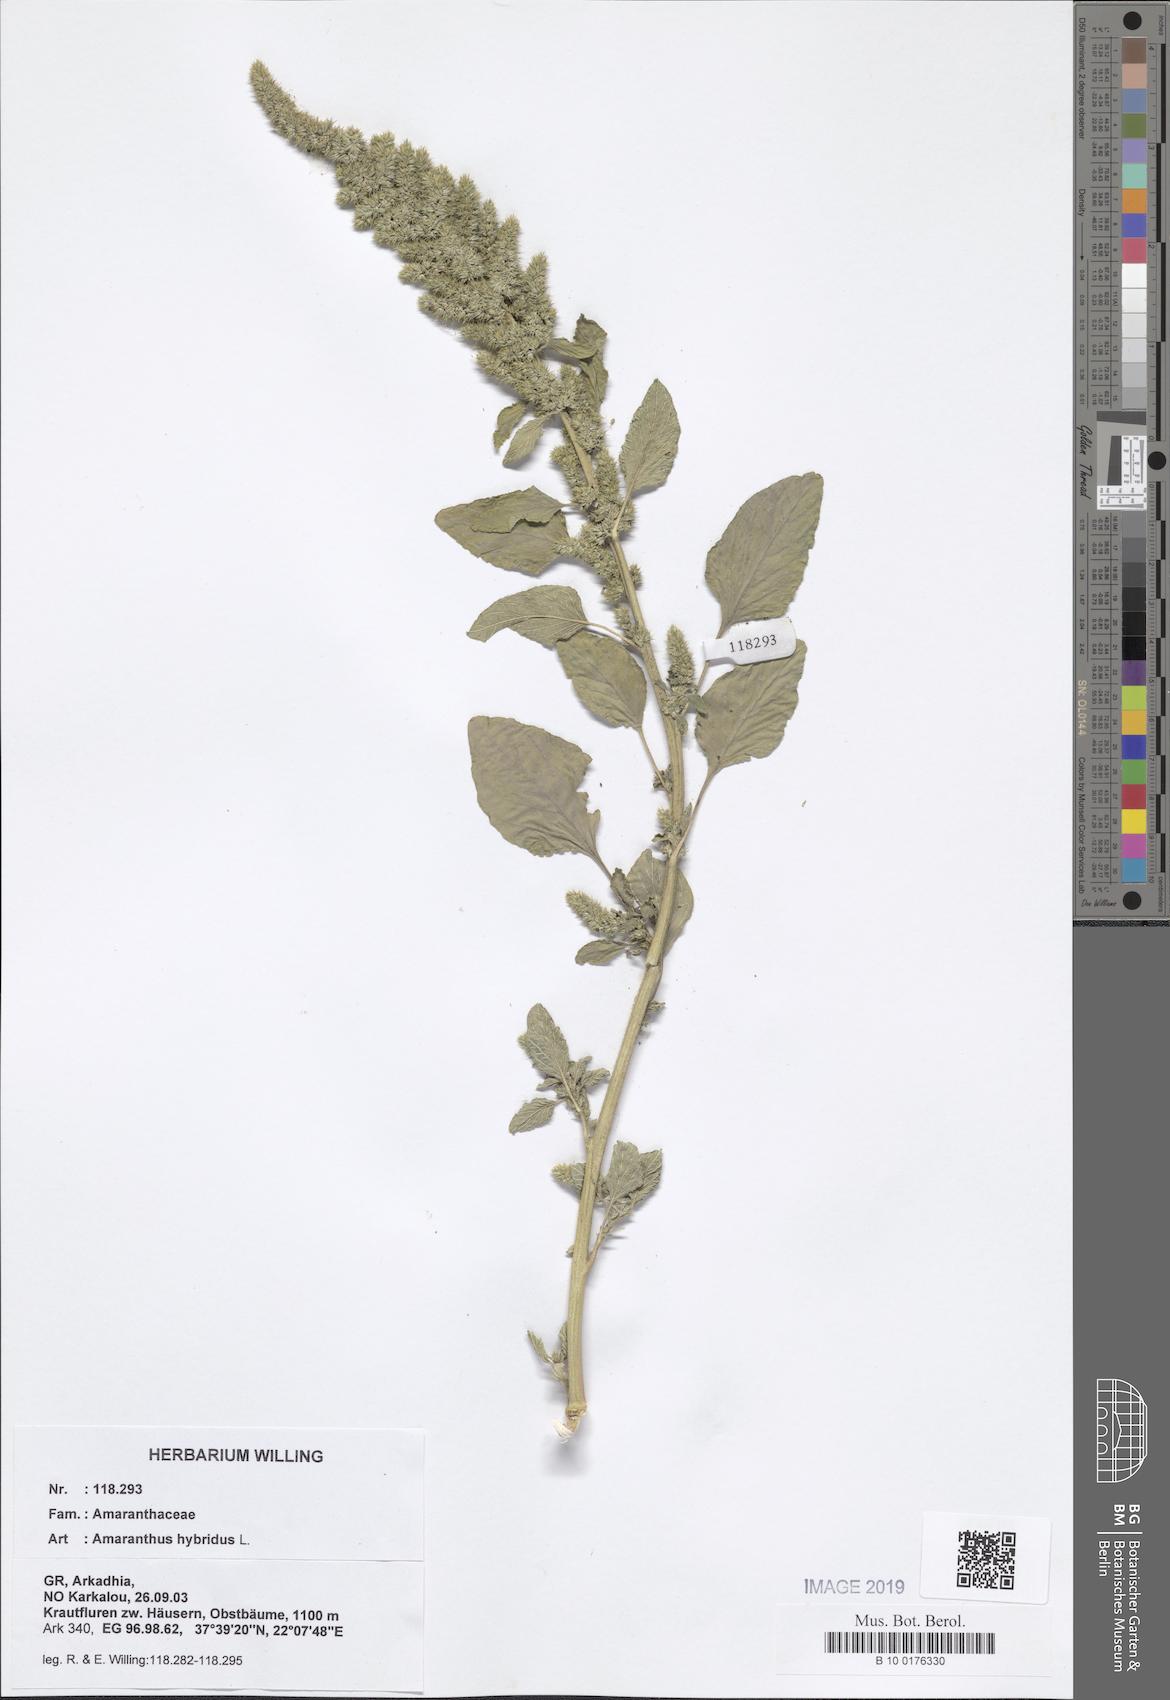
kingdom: Plantae
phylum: Tracheophyta
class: Magnoliopsida
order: Caryophyllales
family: Amaranthaceae
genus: Amaranthus
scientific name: Amaranthus hybridus
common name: Green amaranth
